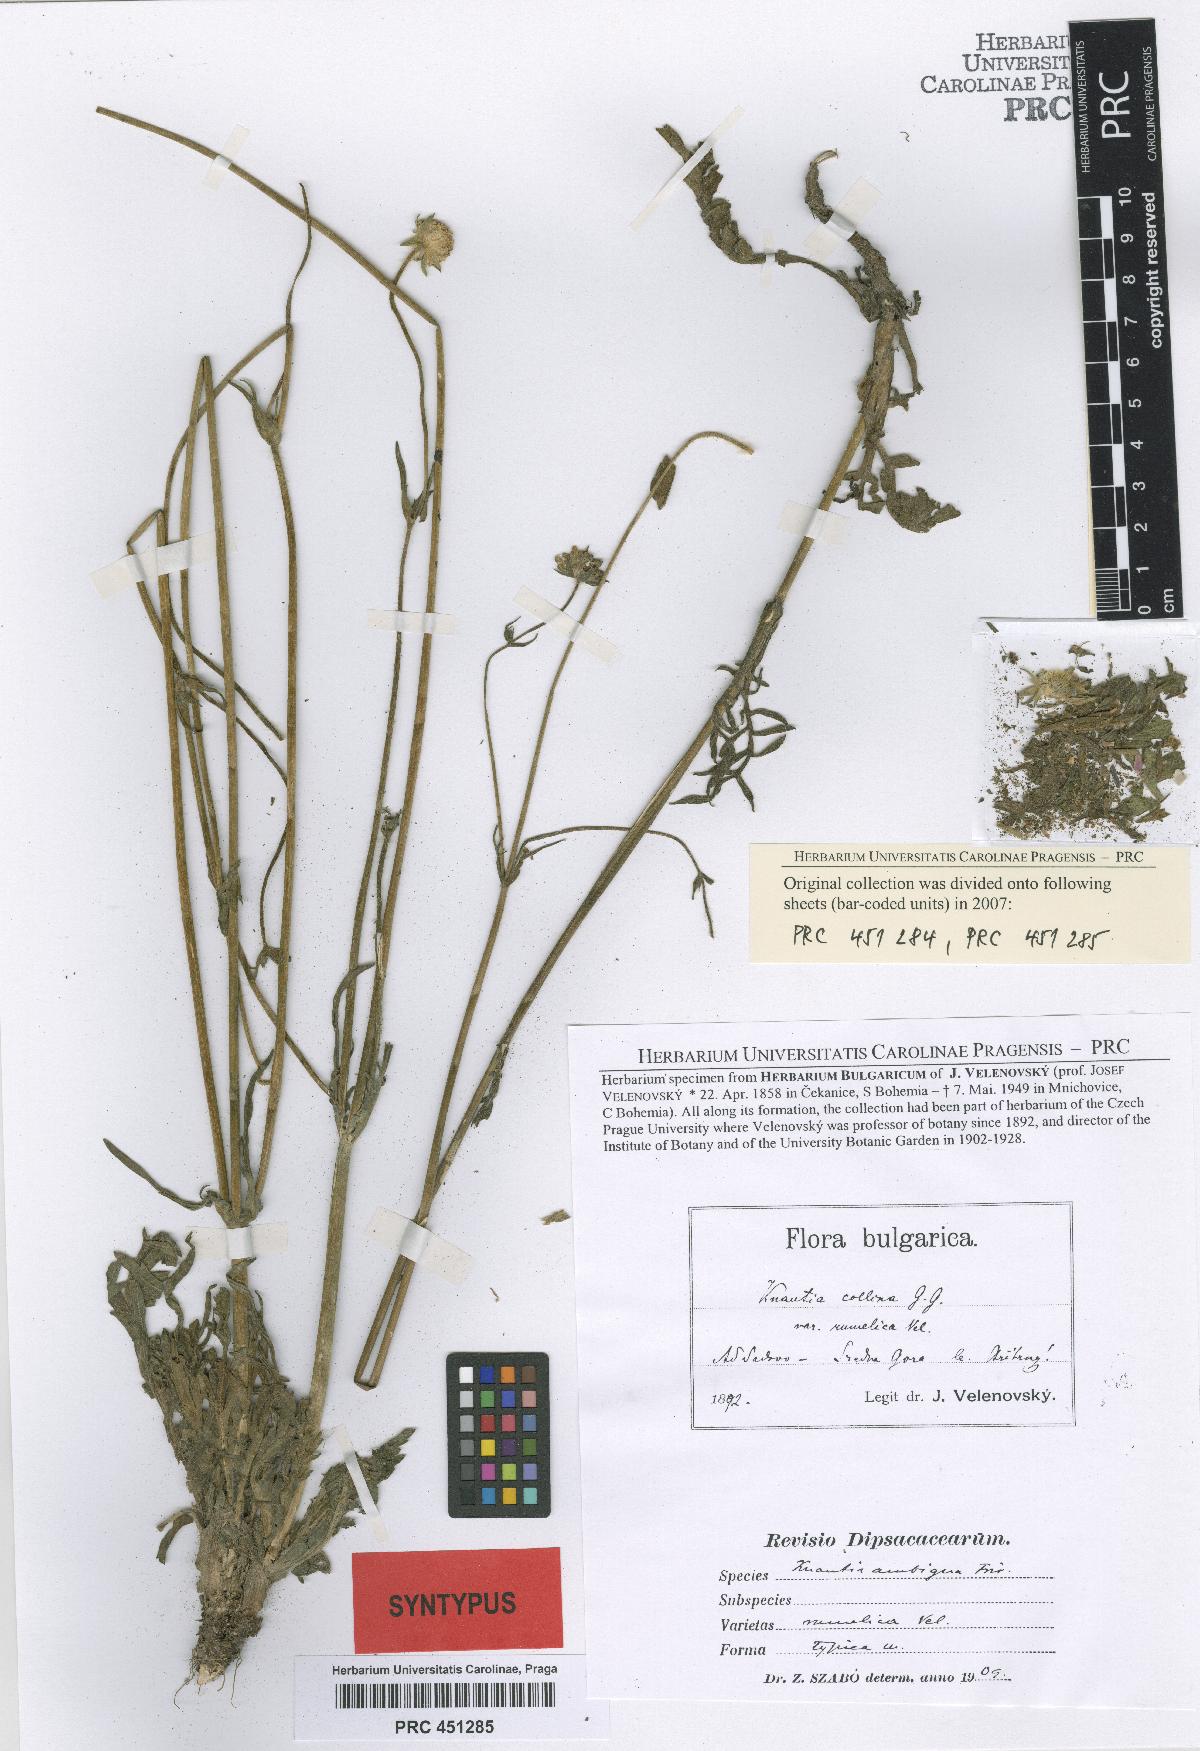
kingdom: Plantae
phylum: Tracheophyta
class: Magnoliopsida
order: Dipsacales
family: Caprifoliaceae
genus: Knautia
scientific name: Knautia collina
